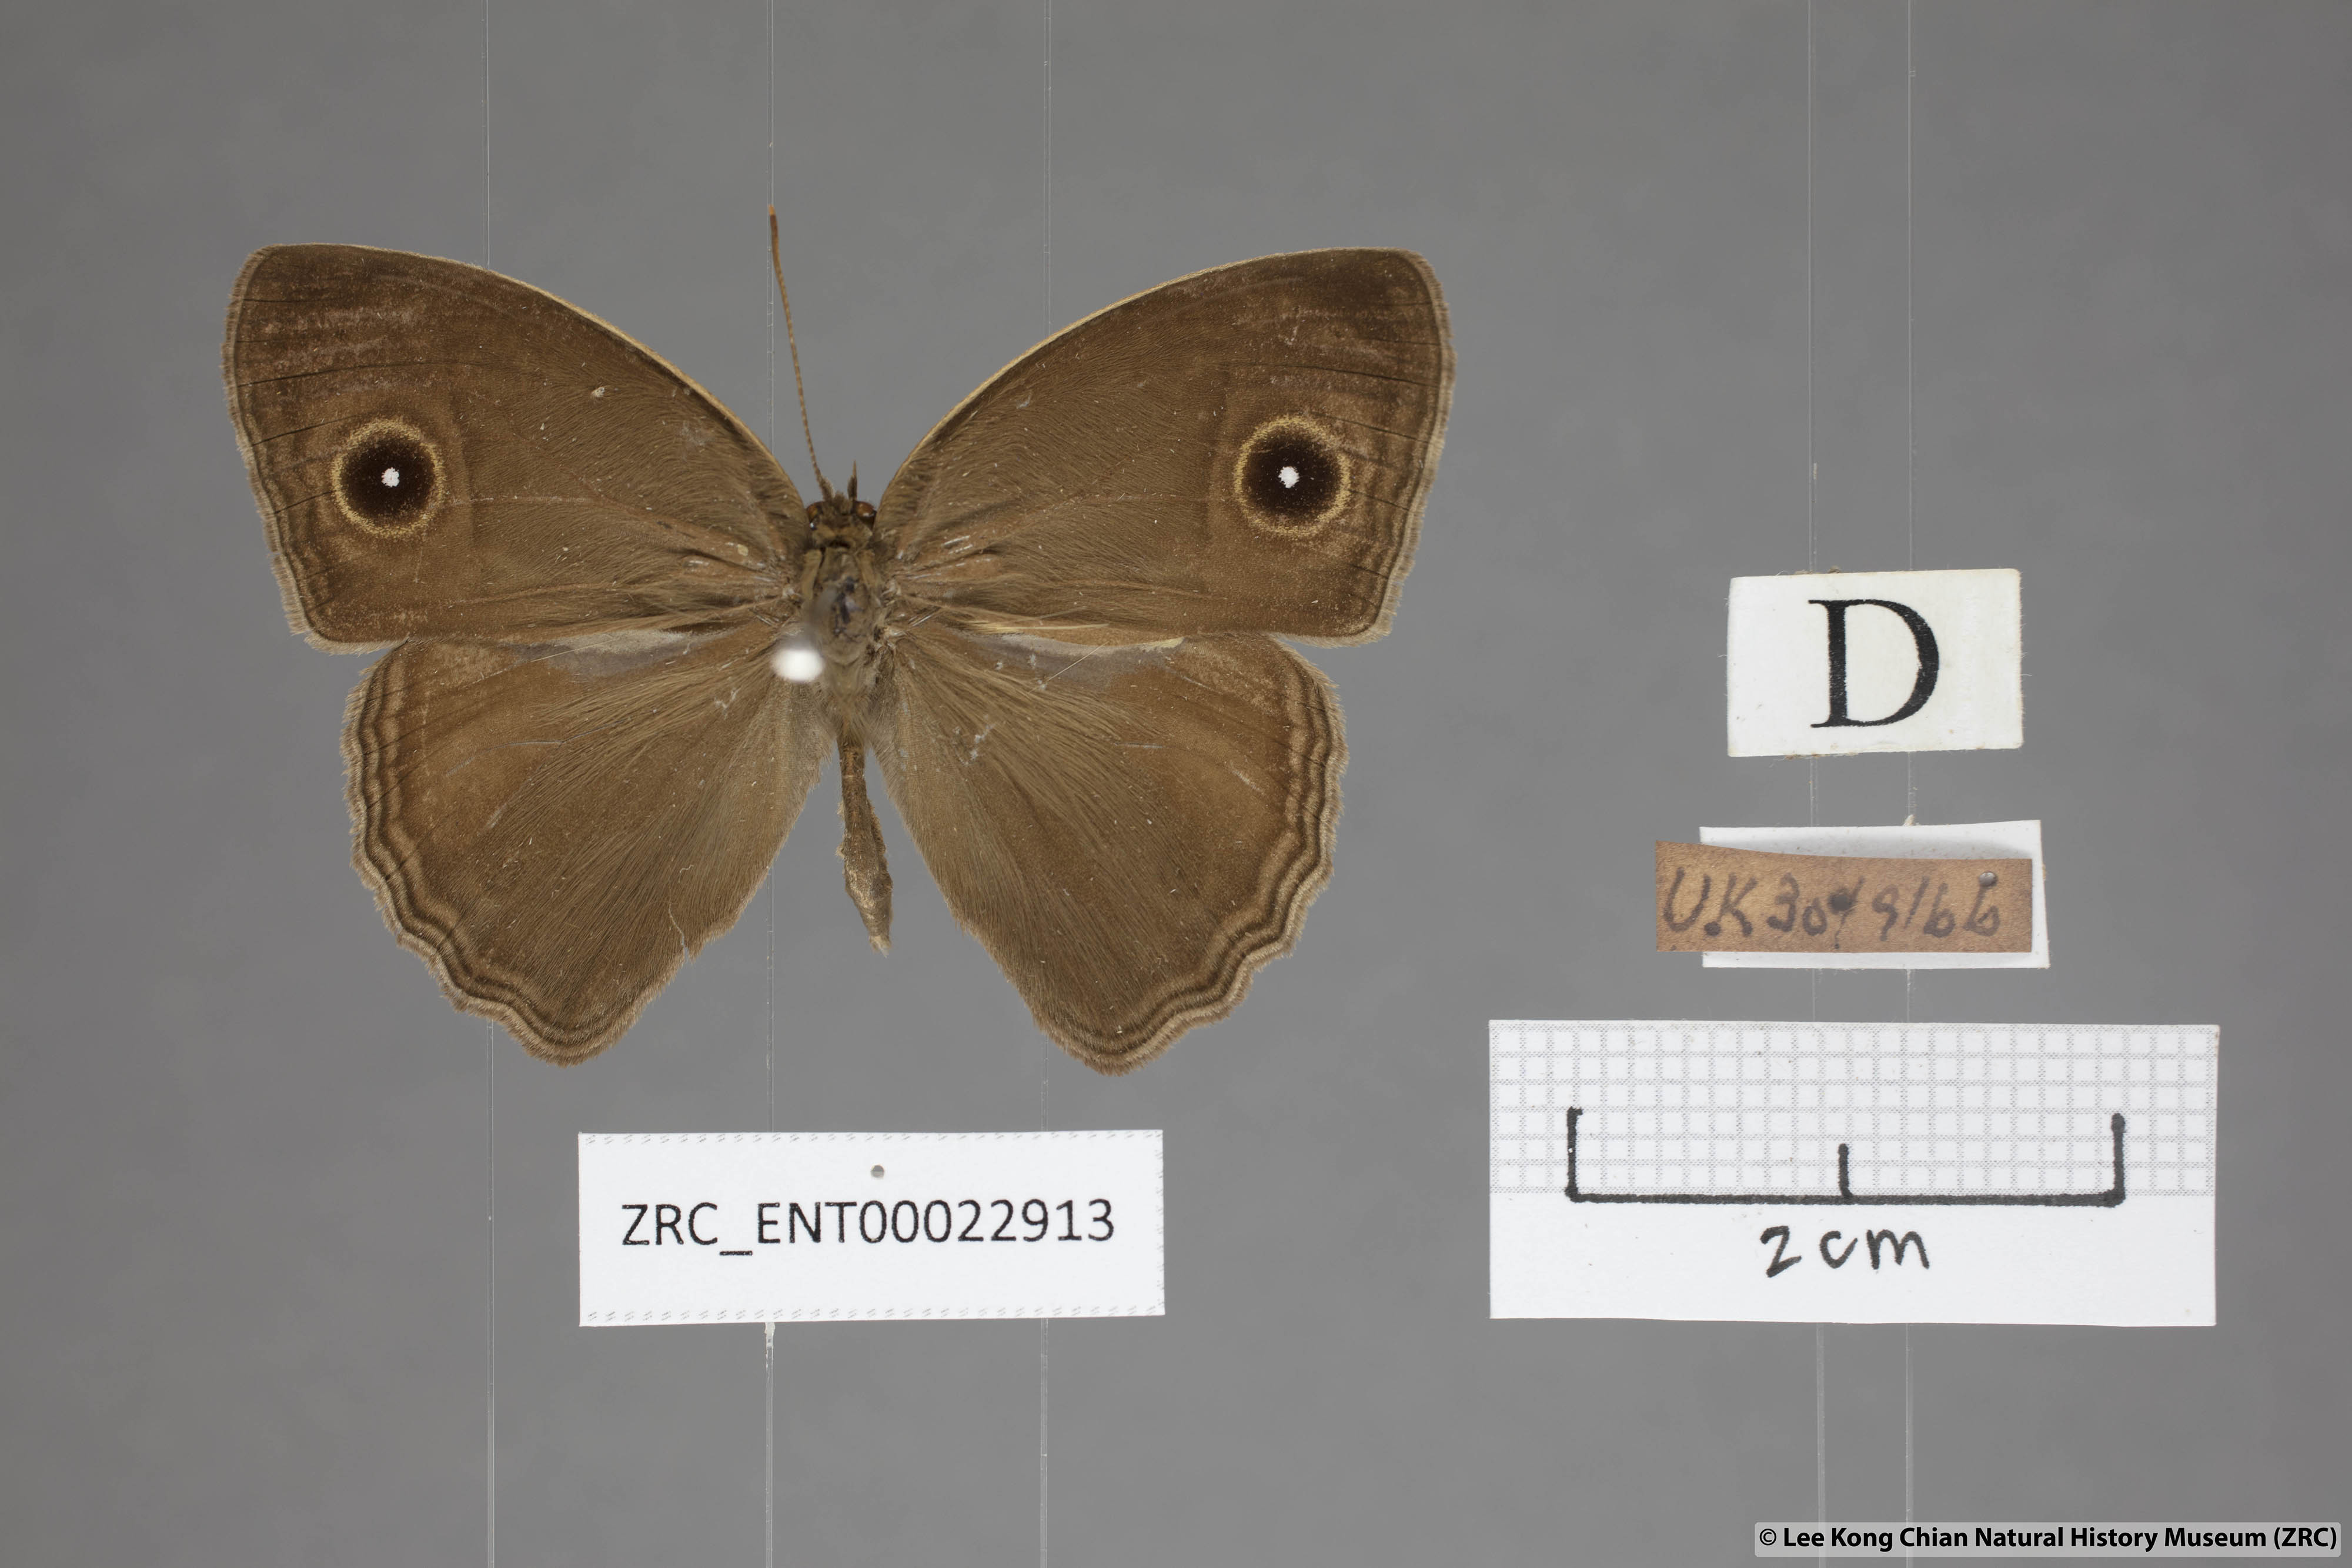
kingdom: Animalia
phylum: Arthropoda
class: Insecta
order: Lepidoptera
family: Nymphalidae
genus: Mycalesis
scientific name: Mycalesis horsfieldii
